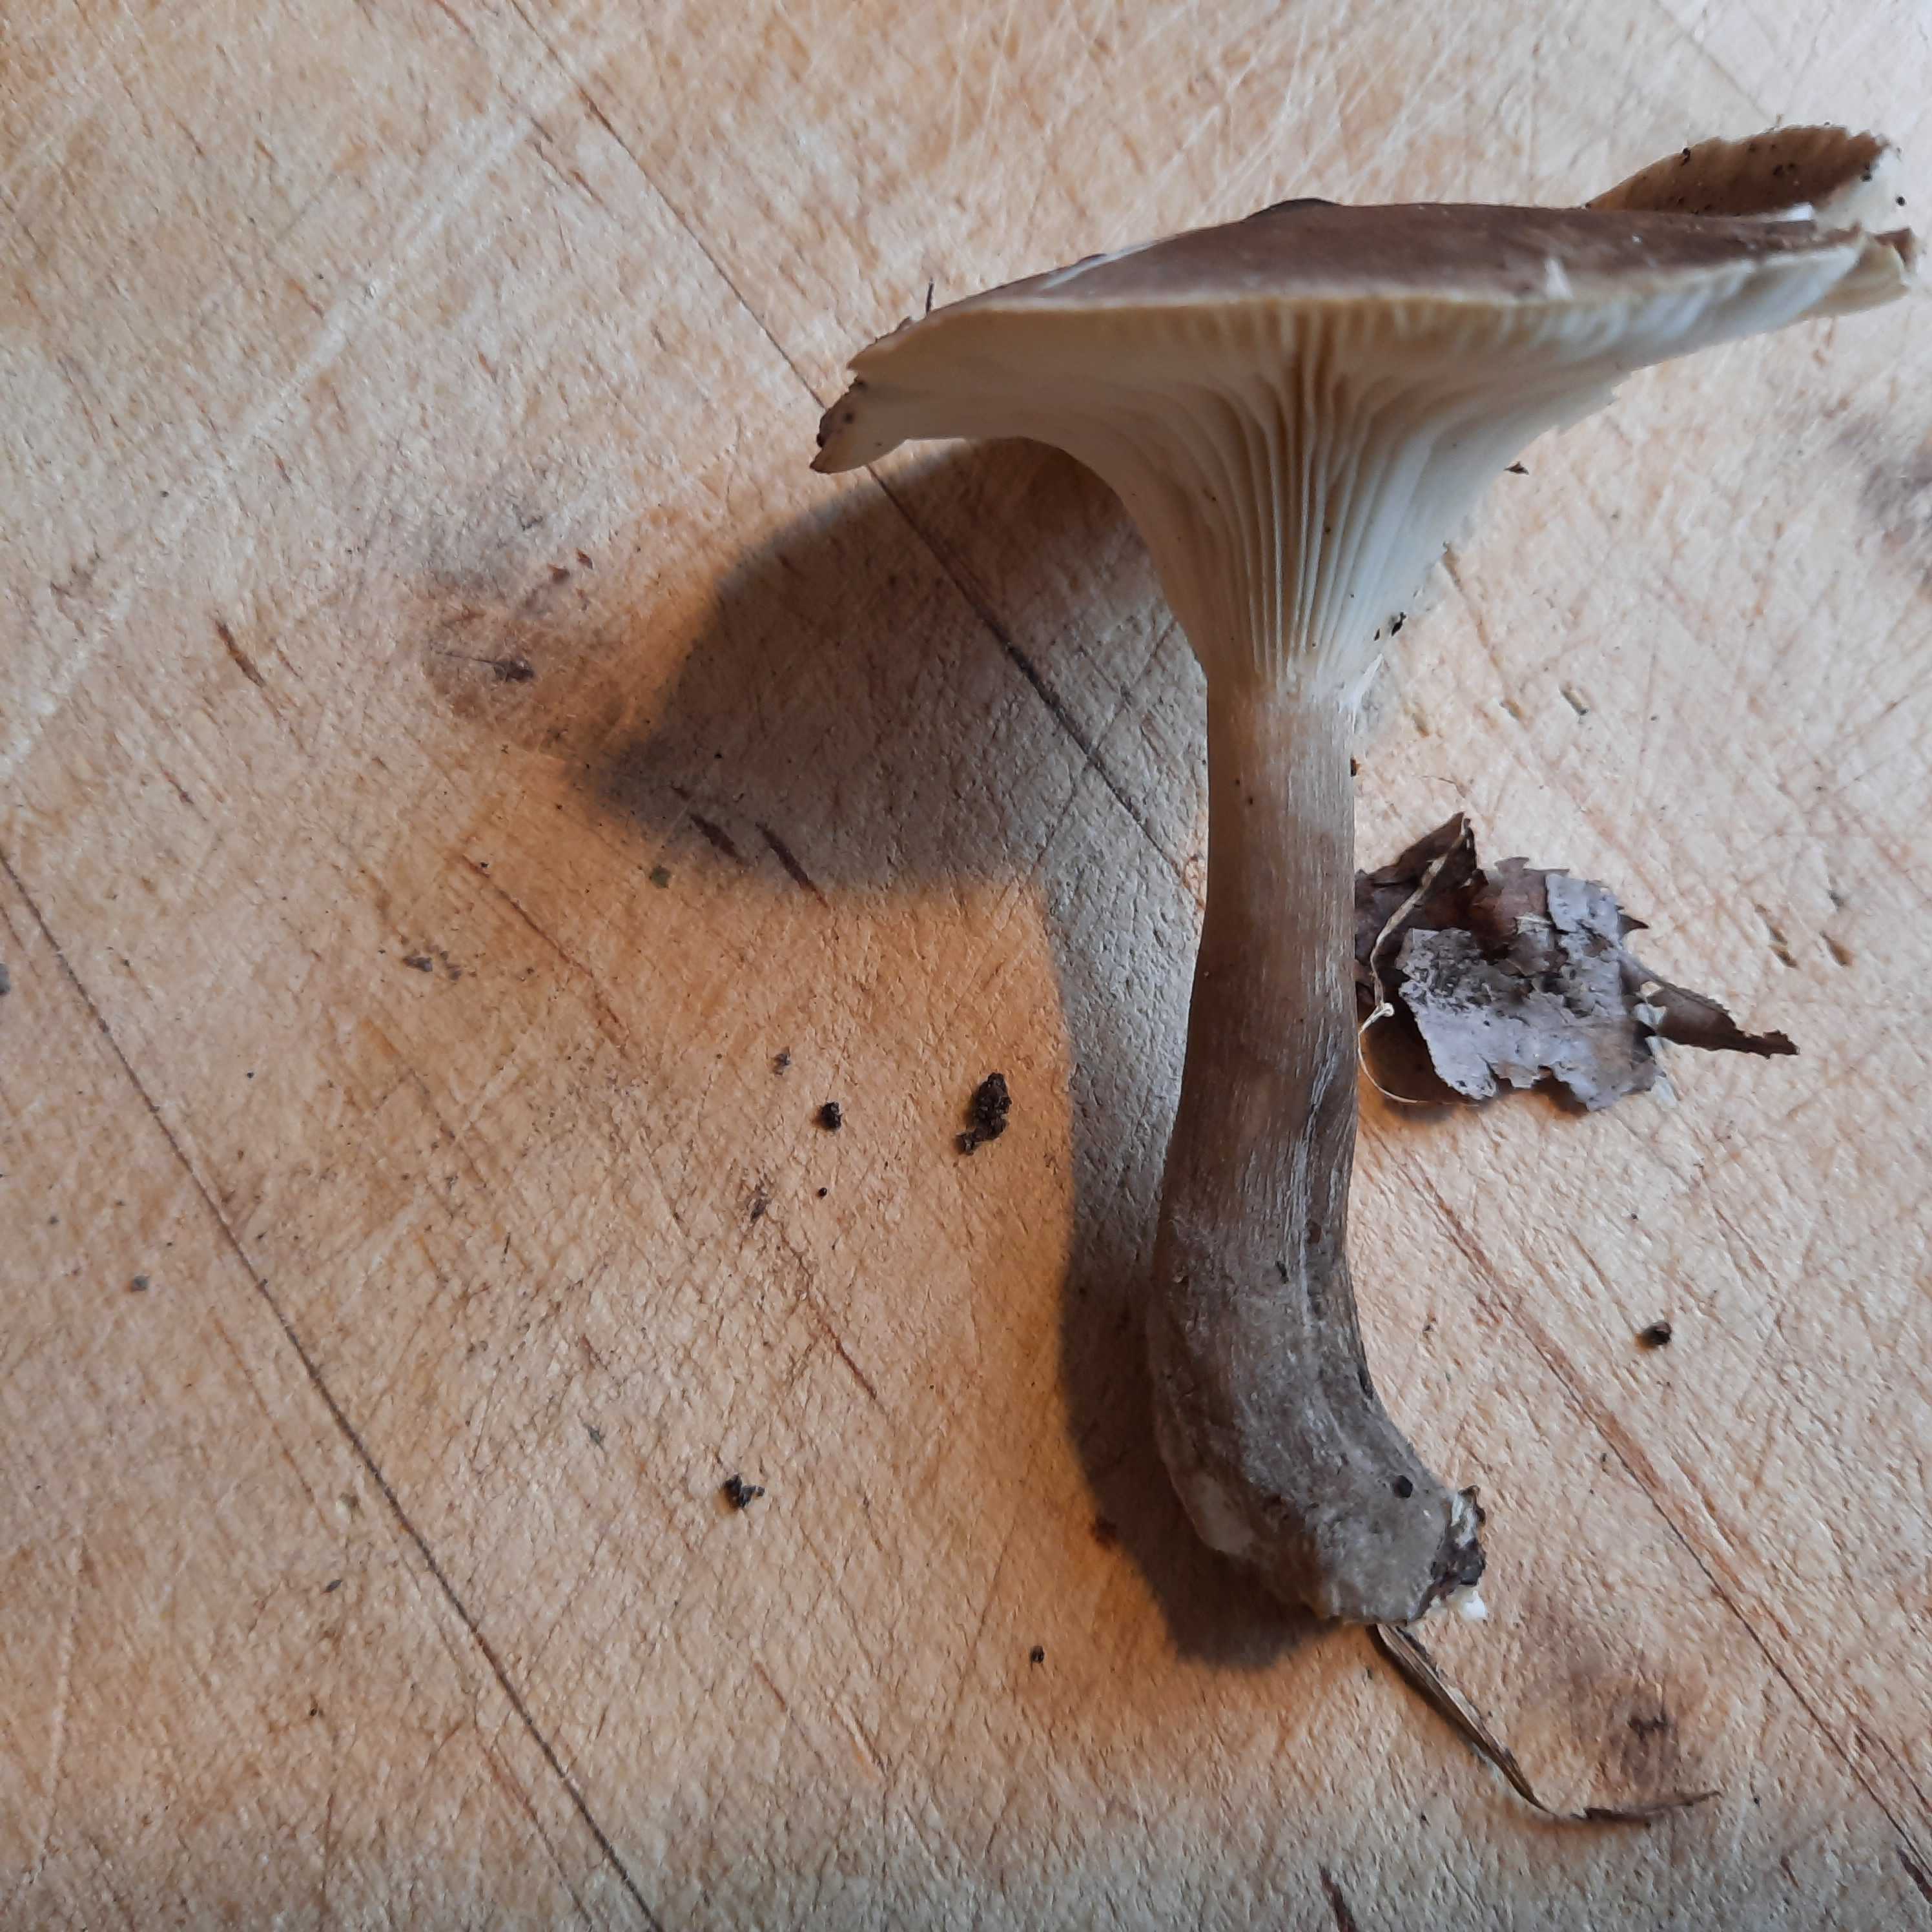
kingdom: Fungi
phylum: Basidiomycota
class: Agaricomycetes
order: Agaricales
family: Hygrophoraceae
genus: Ampulloclitocybe
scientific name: Ampulloclitocybe clavipes
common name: køllefod
